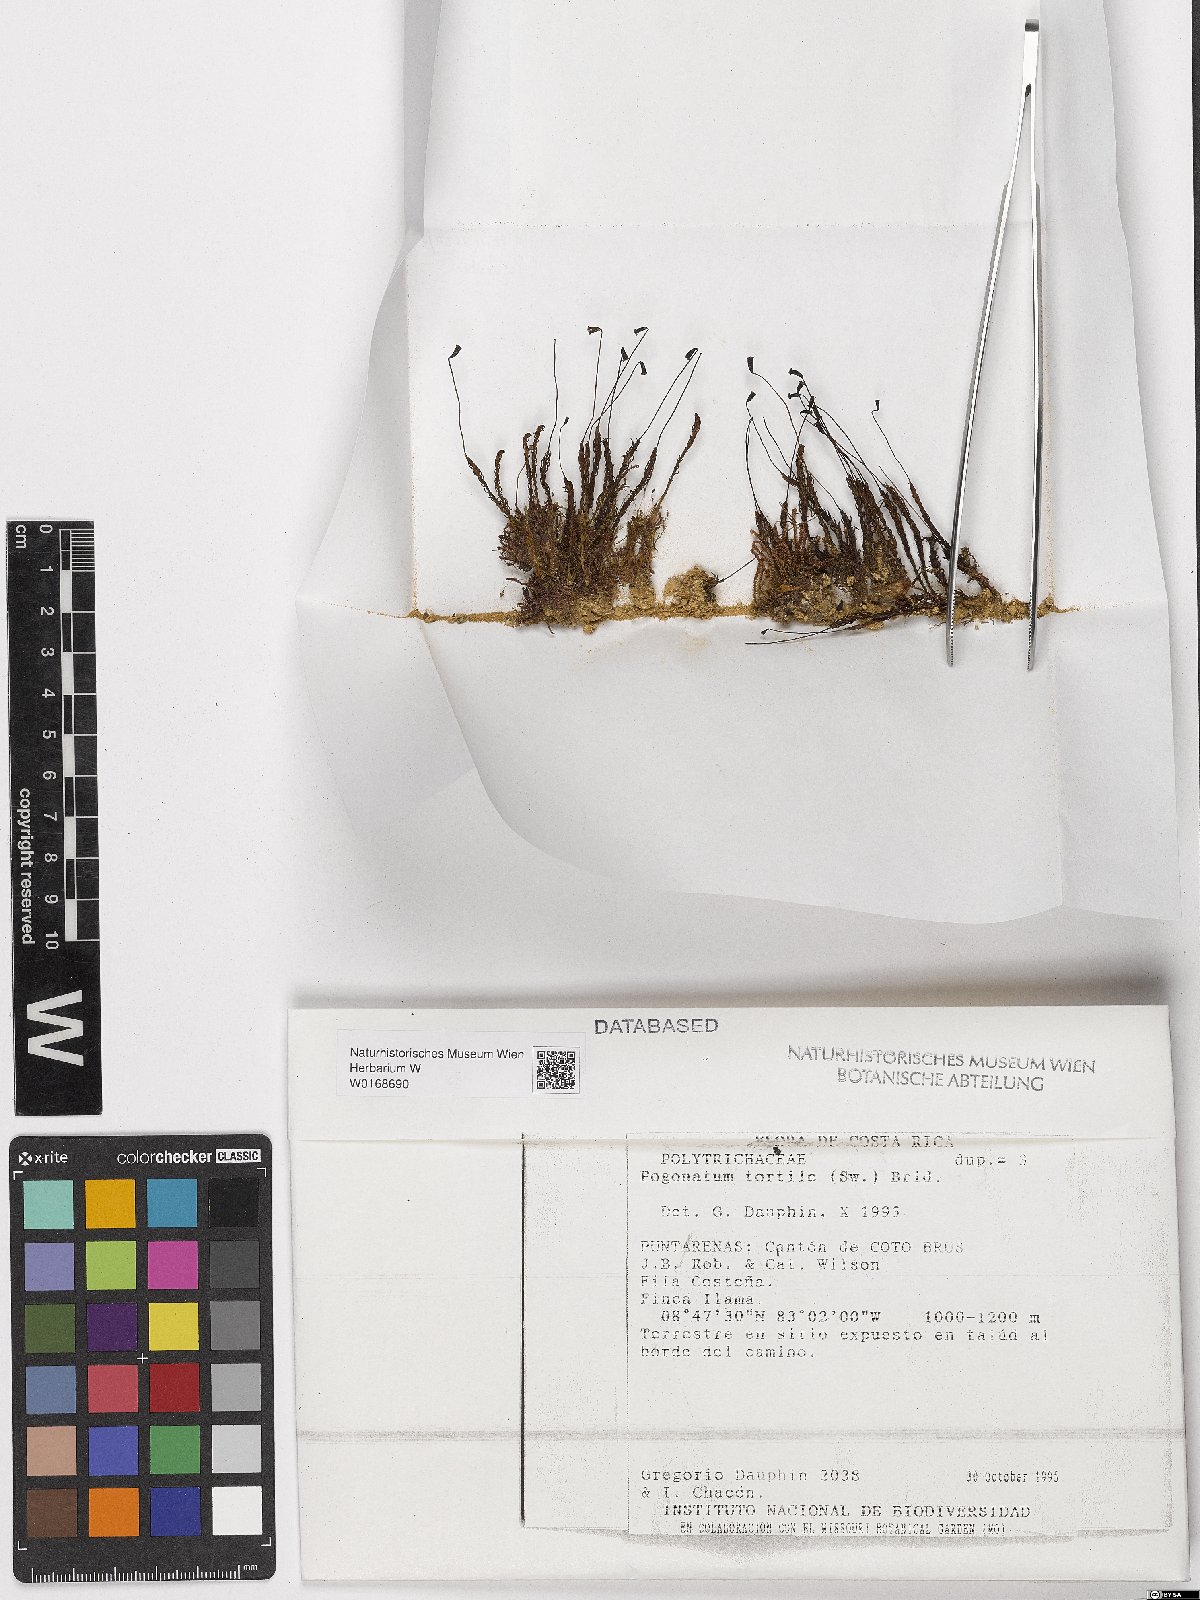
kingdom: Plantae
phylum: Bryophyta
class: Polytrichopsida
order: Polytrichales
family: Polytrichaceae
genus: Pogonatum
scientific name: Pogonatum tortile
